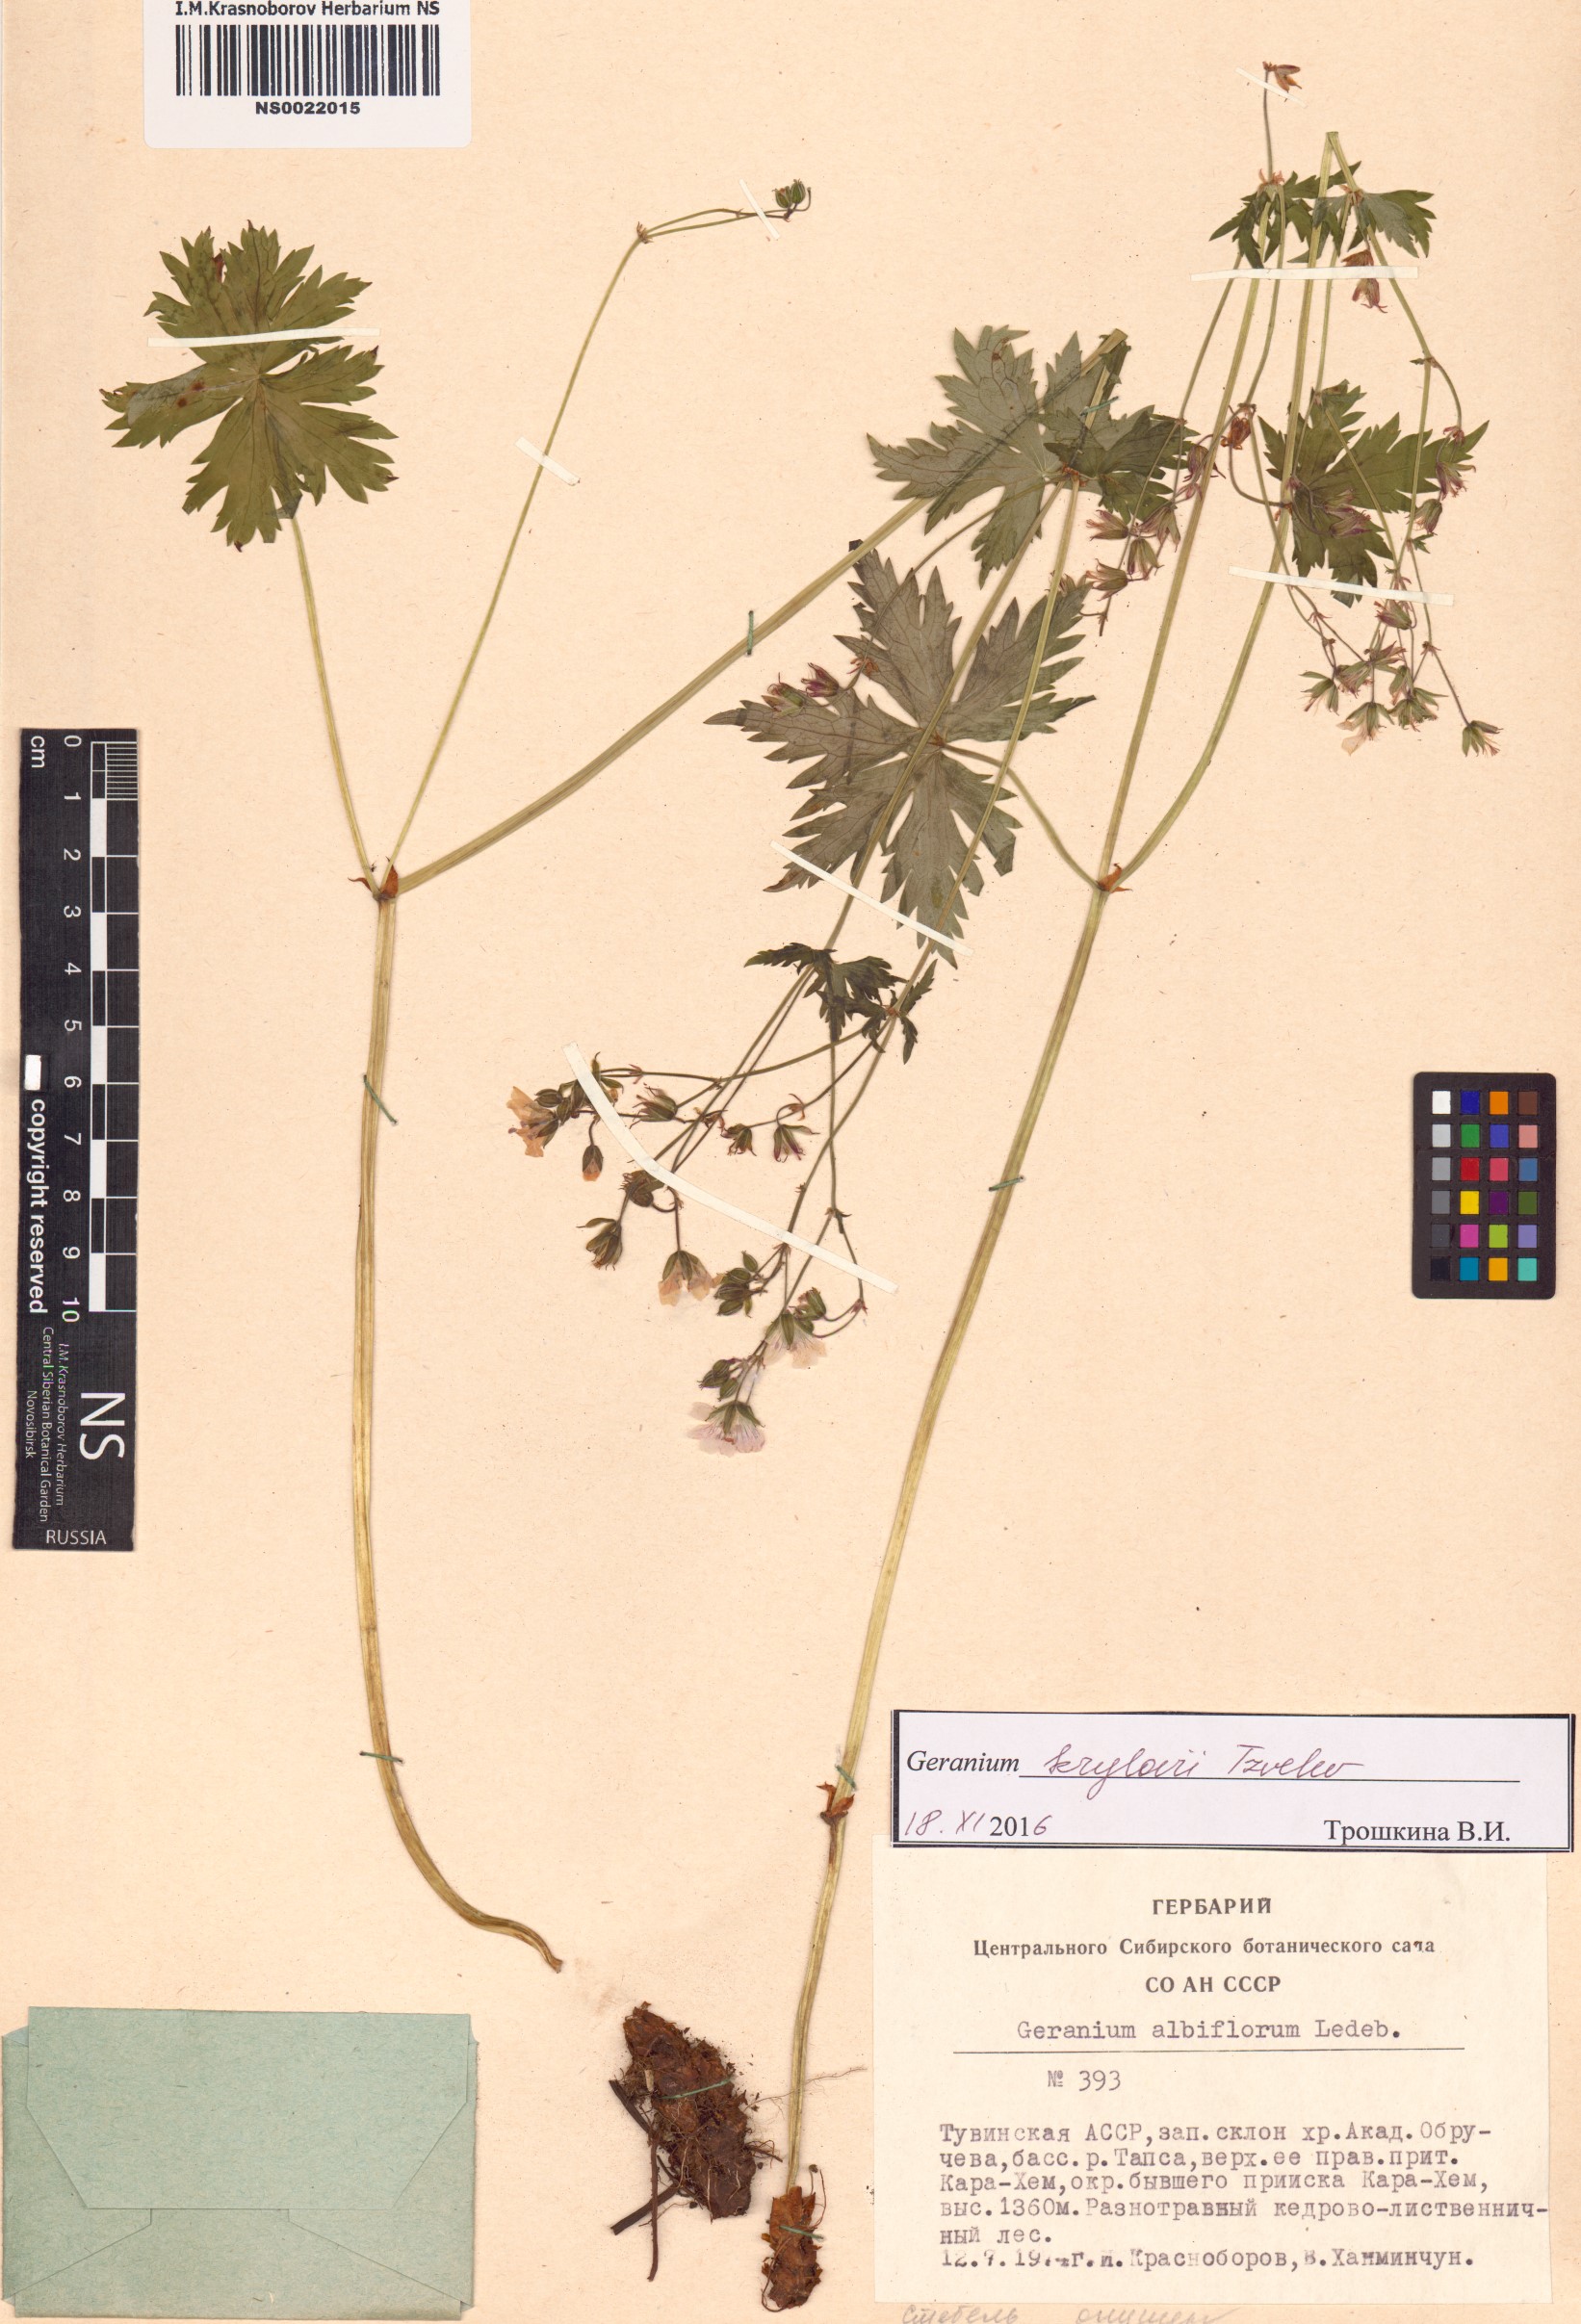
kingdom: Plantae
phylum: Tracheophyta
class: Magnoliopsida
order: Geraniales
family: Geraniaceae
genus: Geranium
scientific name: Geranium sylvaticum
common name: Wood crane's-bill
